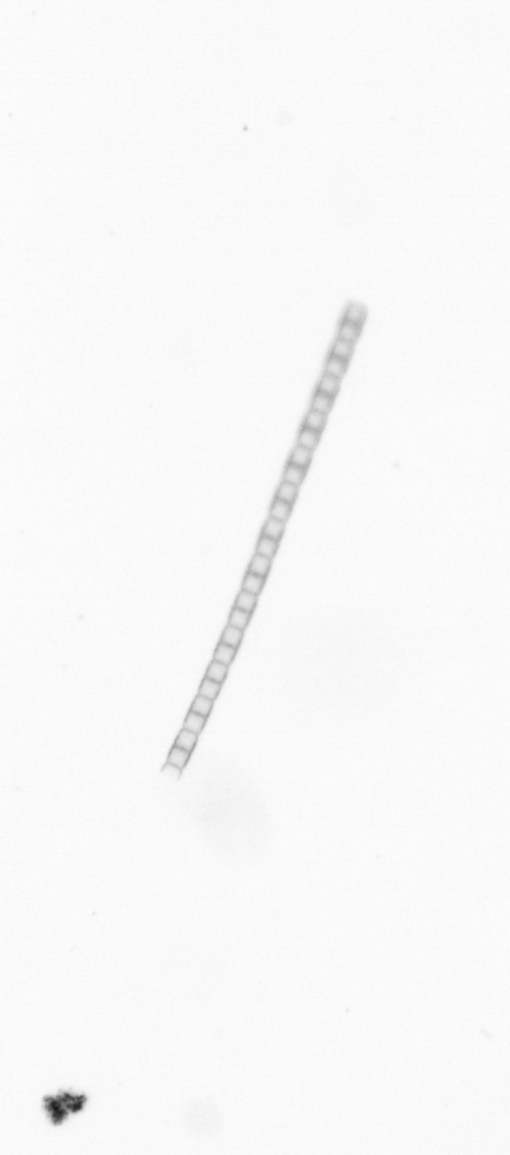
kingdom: Chromista
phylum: Ochrophyta
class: Bacillariophyceae
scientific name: Bacillariophyceae
